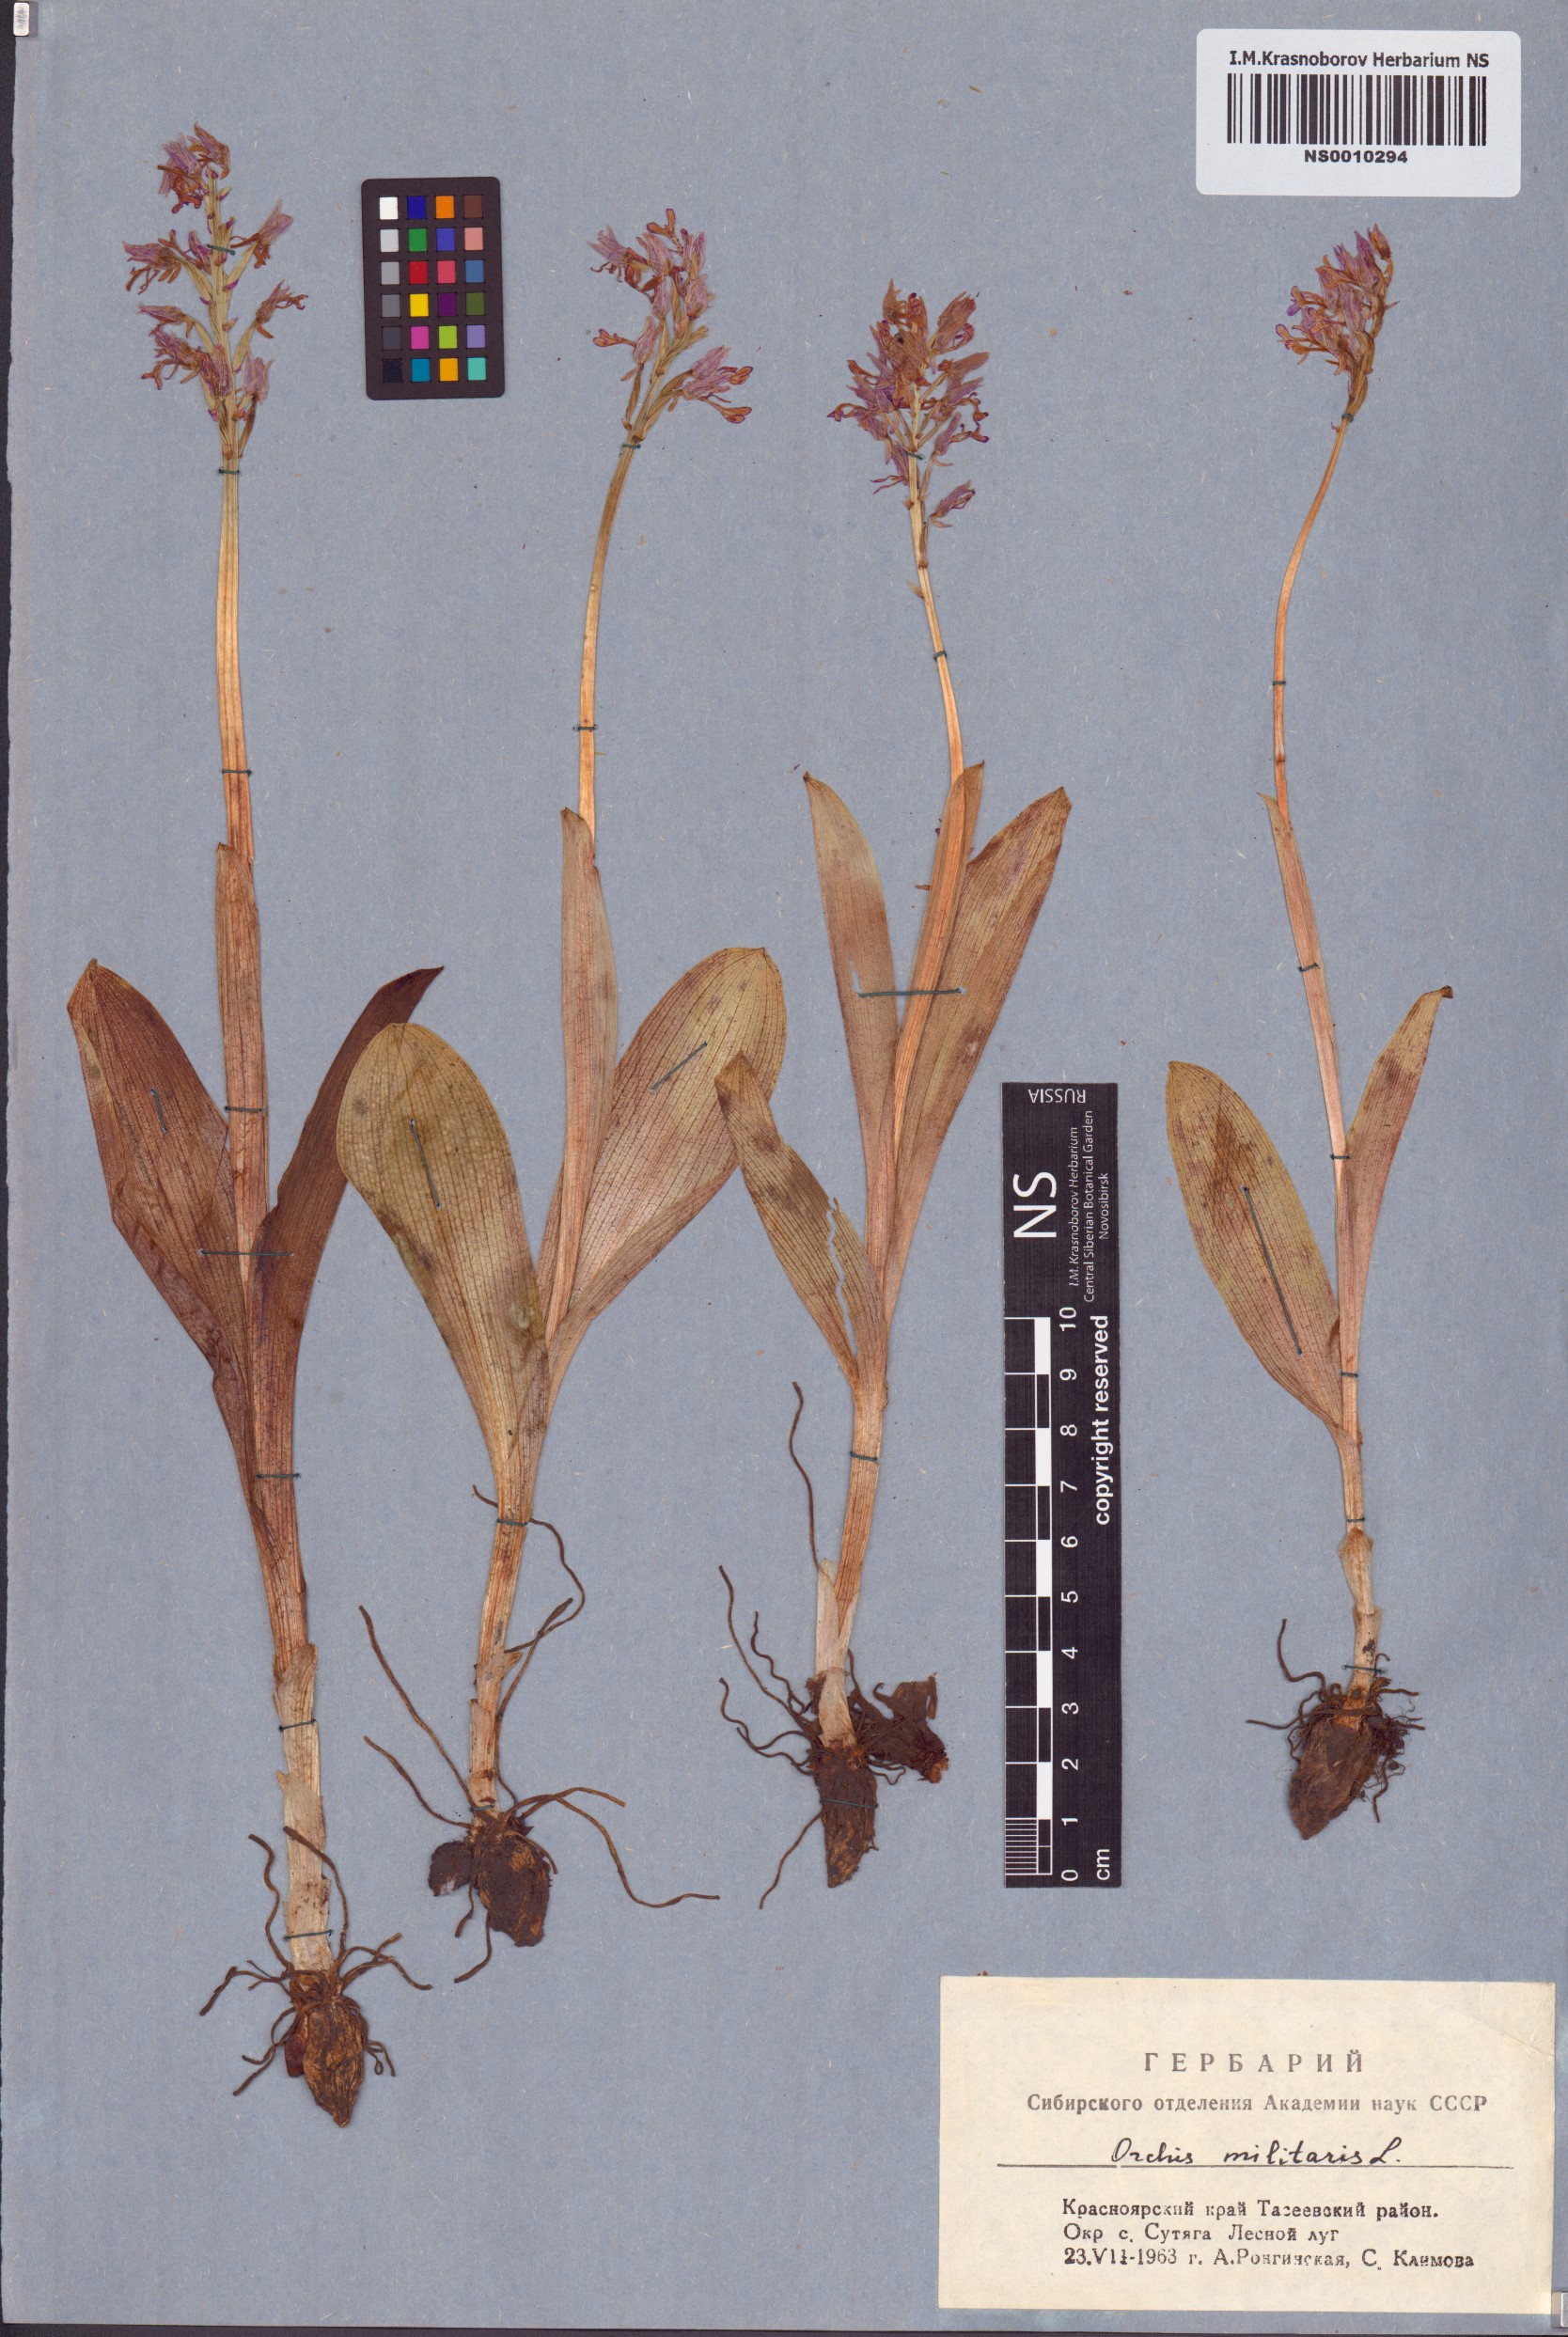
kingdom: Plantae
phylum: Tracheophyta
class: Liliopsida
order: Asparagales
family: Orchidaceae
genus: Orchis
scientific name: Orchis militaris
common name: Military orchid
